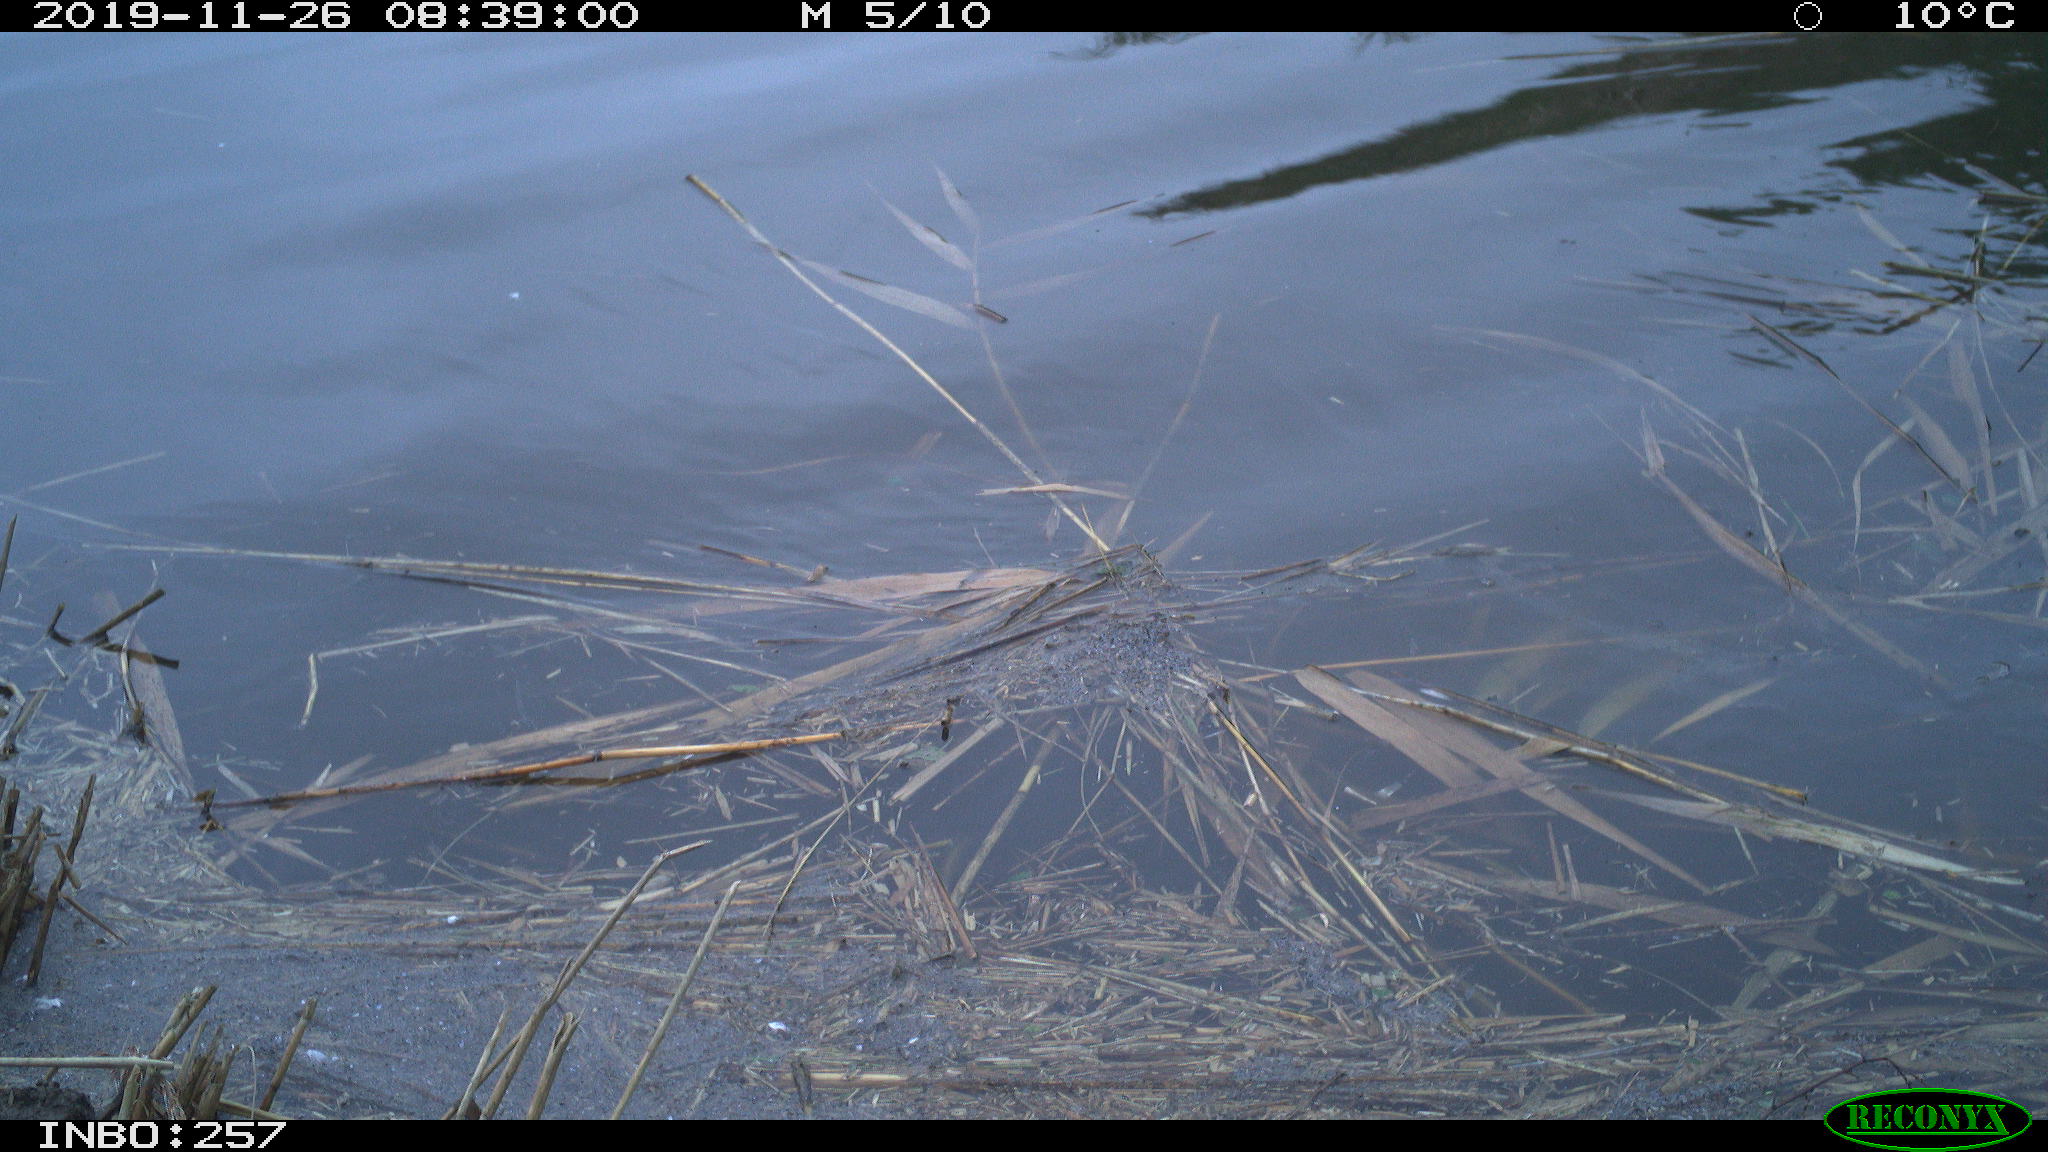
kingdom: Animalia
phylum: Chordata
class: Aves
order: Gruiformes
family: Rallidae
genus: Gallinula
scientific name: Gallinula chloropus
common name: Common moorhen
